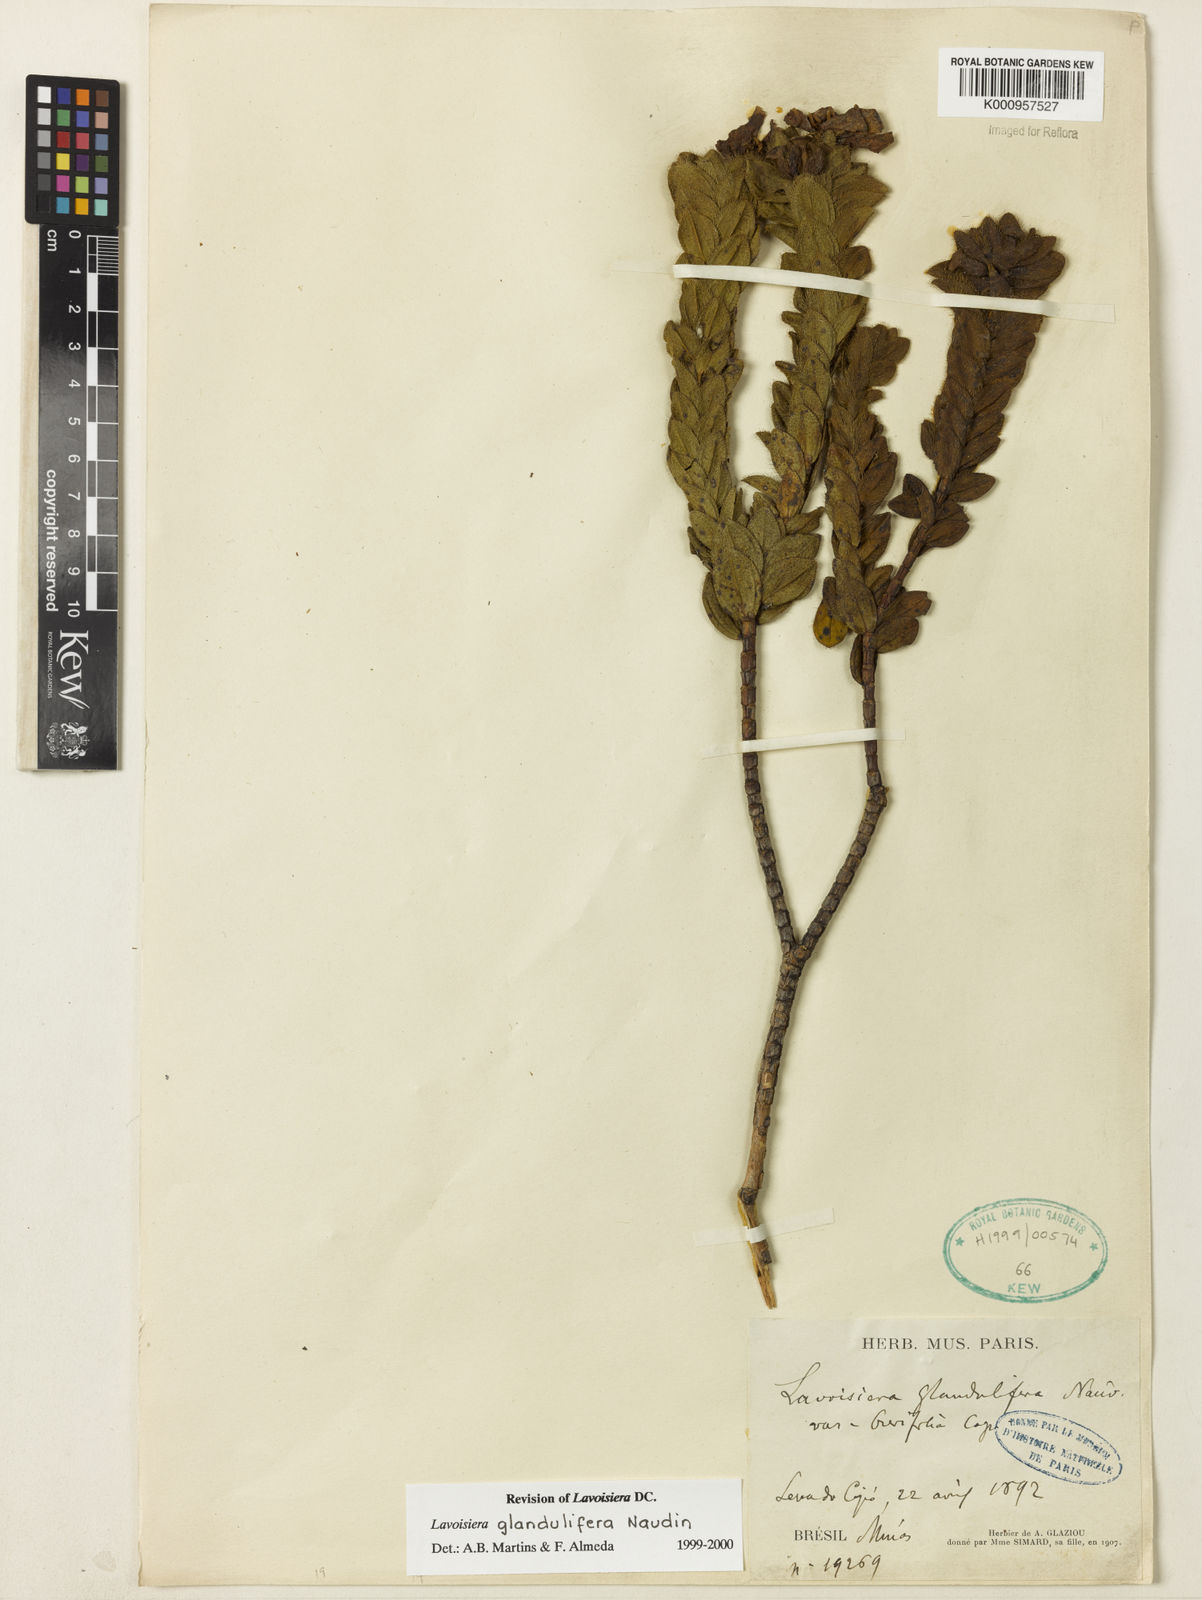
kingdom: Plantae
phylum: Tracheophyta
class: Magnoliopsida
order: Myrtales
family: Melastomataceae
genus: Microlicia
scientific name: Microlicia glandulifolia
